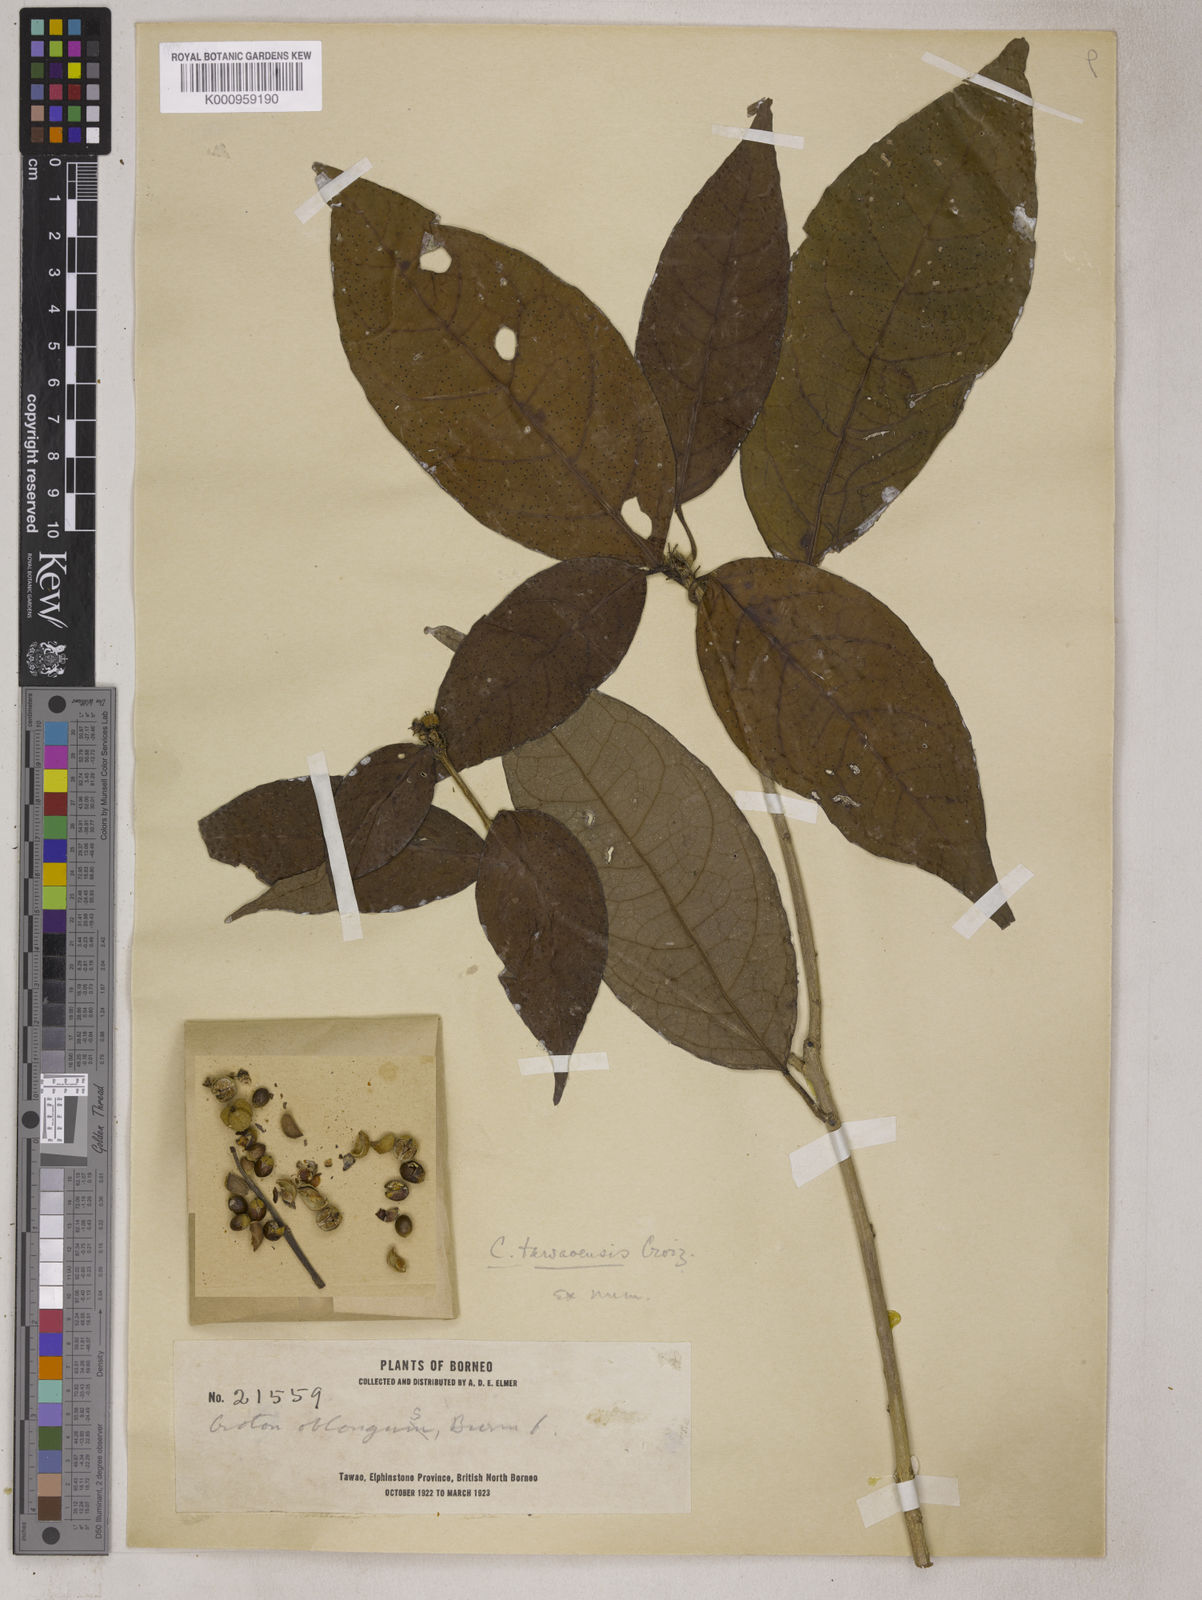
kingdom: Plantae
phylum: Tracheophyta
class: Magnoliopsida
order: Malpighiales
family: Euphorbiaceae
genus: Croton
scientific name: Croton argyratus
